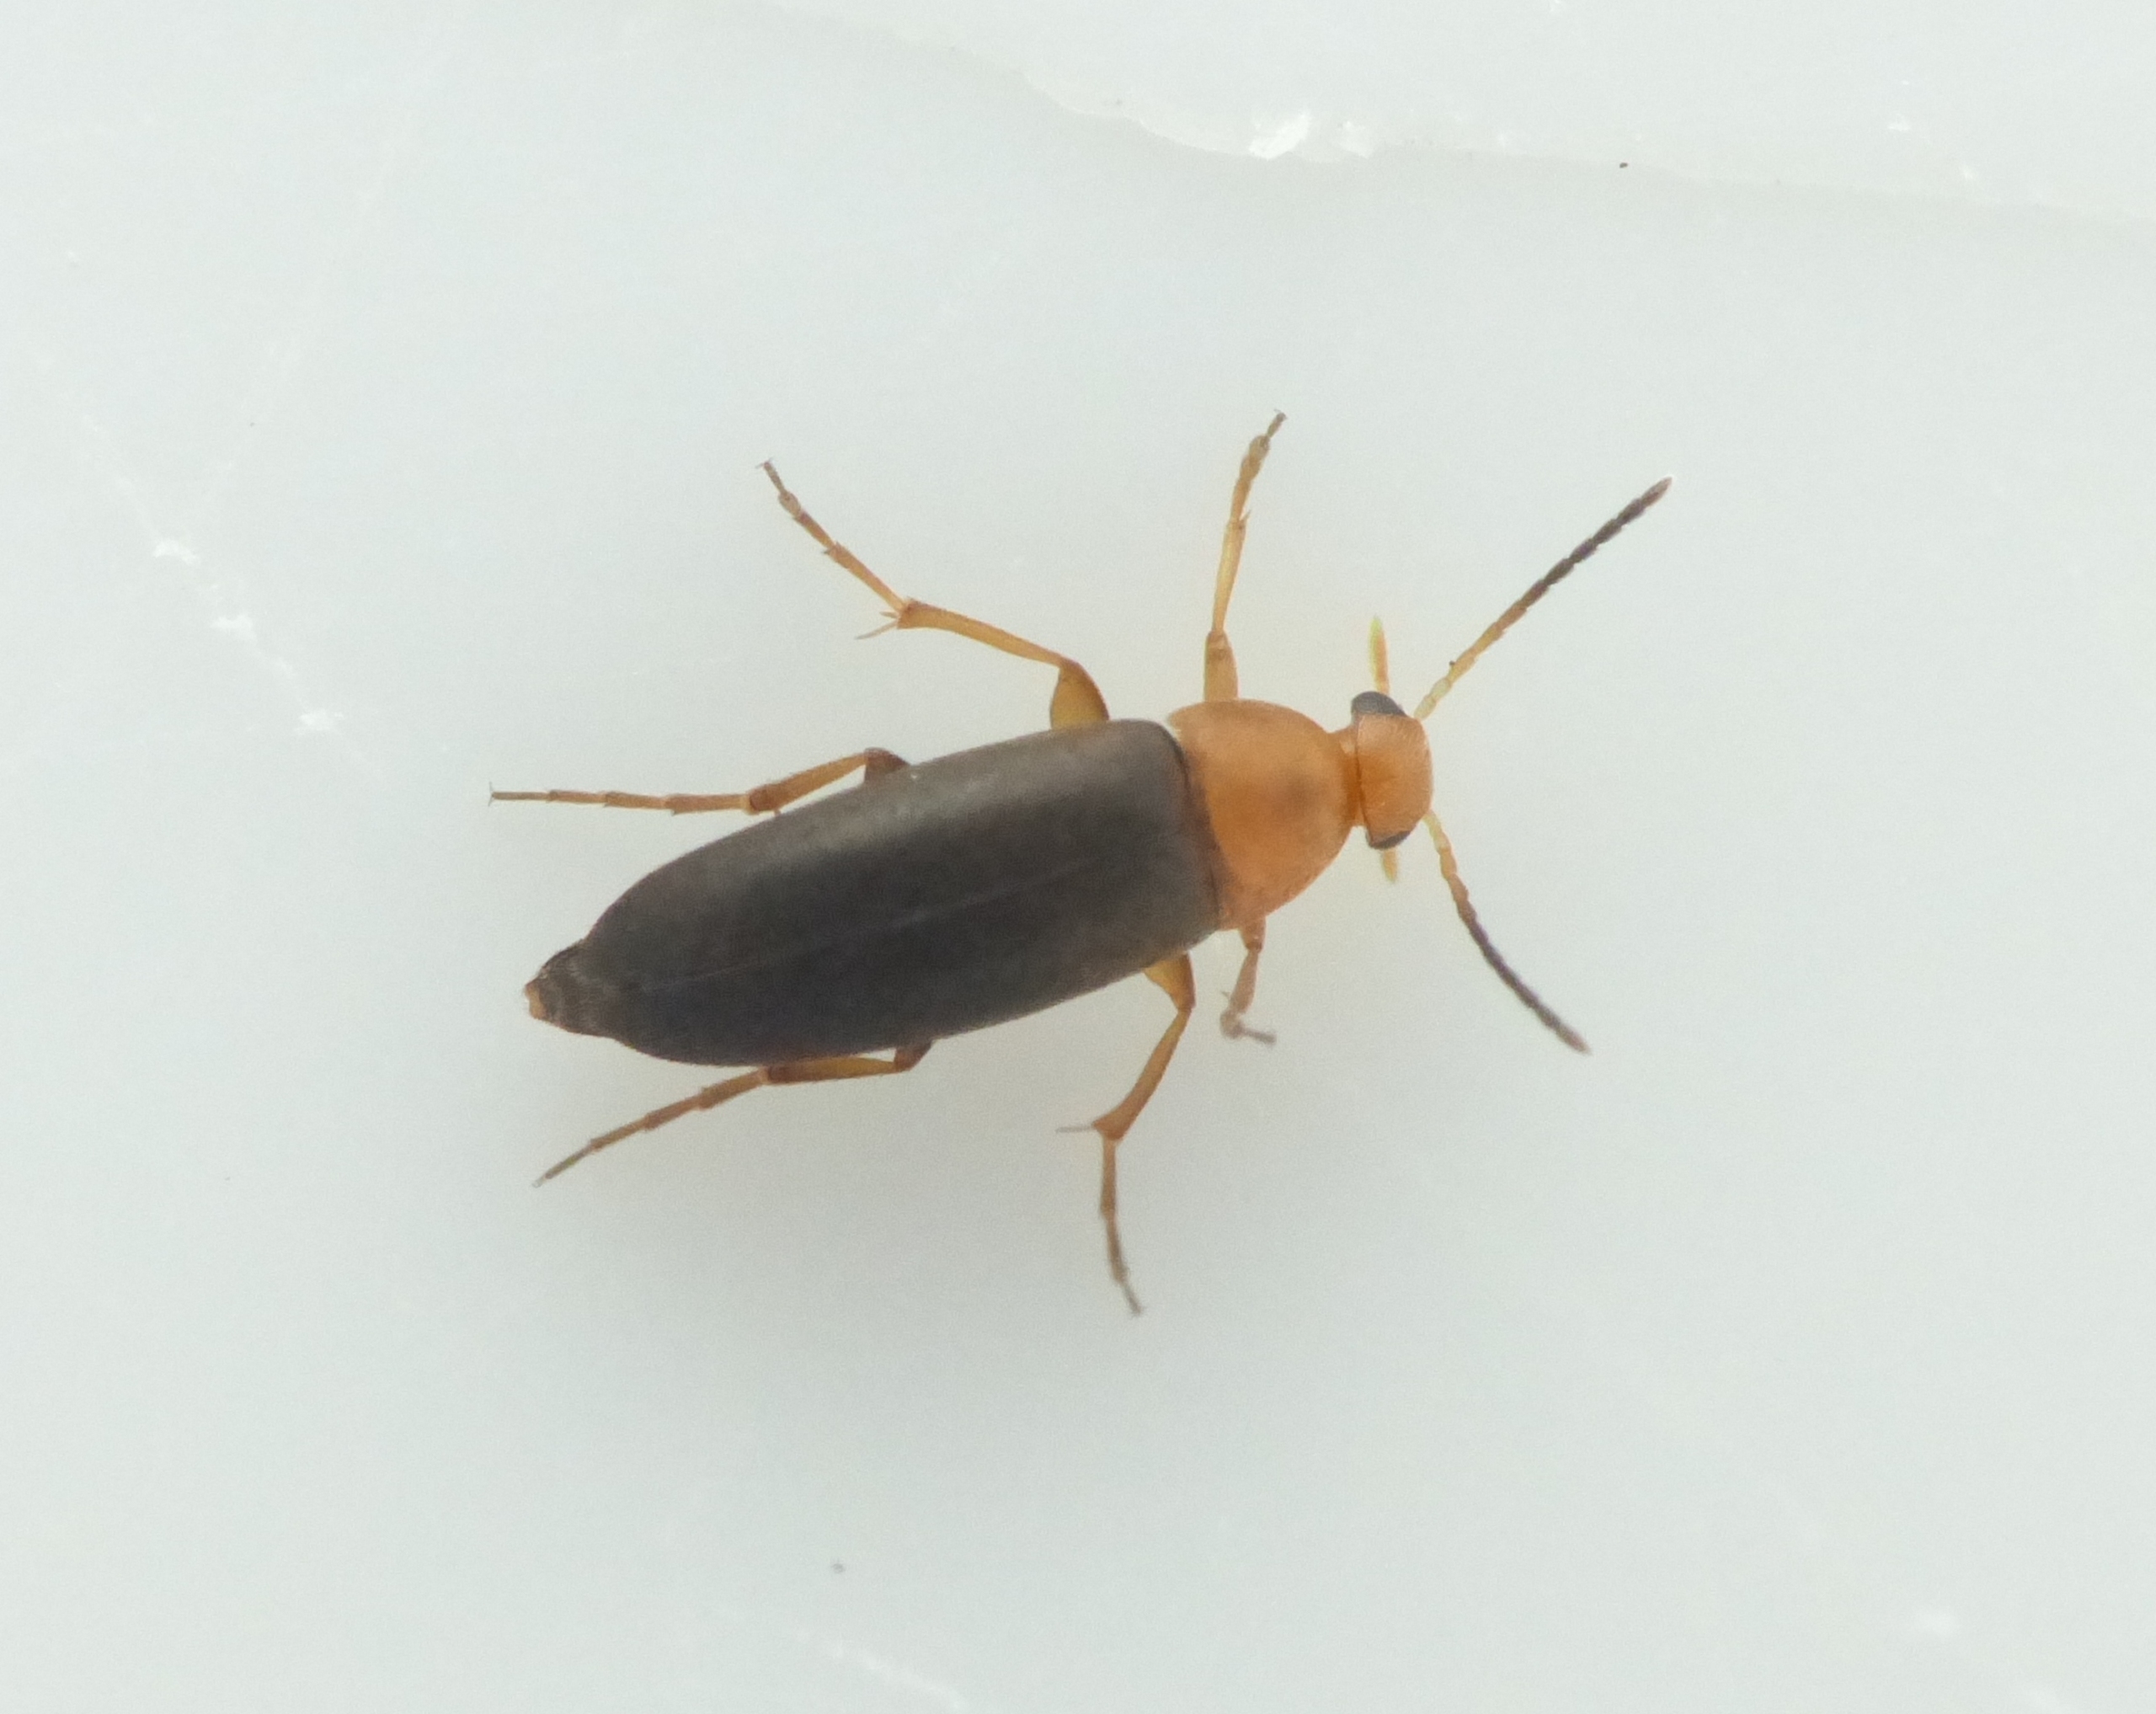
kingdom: Animalia
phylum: Arthropoda
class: Insecta
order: Coleoptera
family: Scraptiidae
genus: Anaspis
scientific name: Anaspis thoracica
